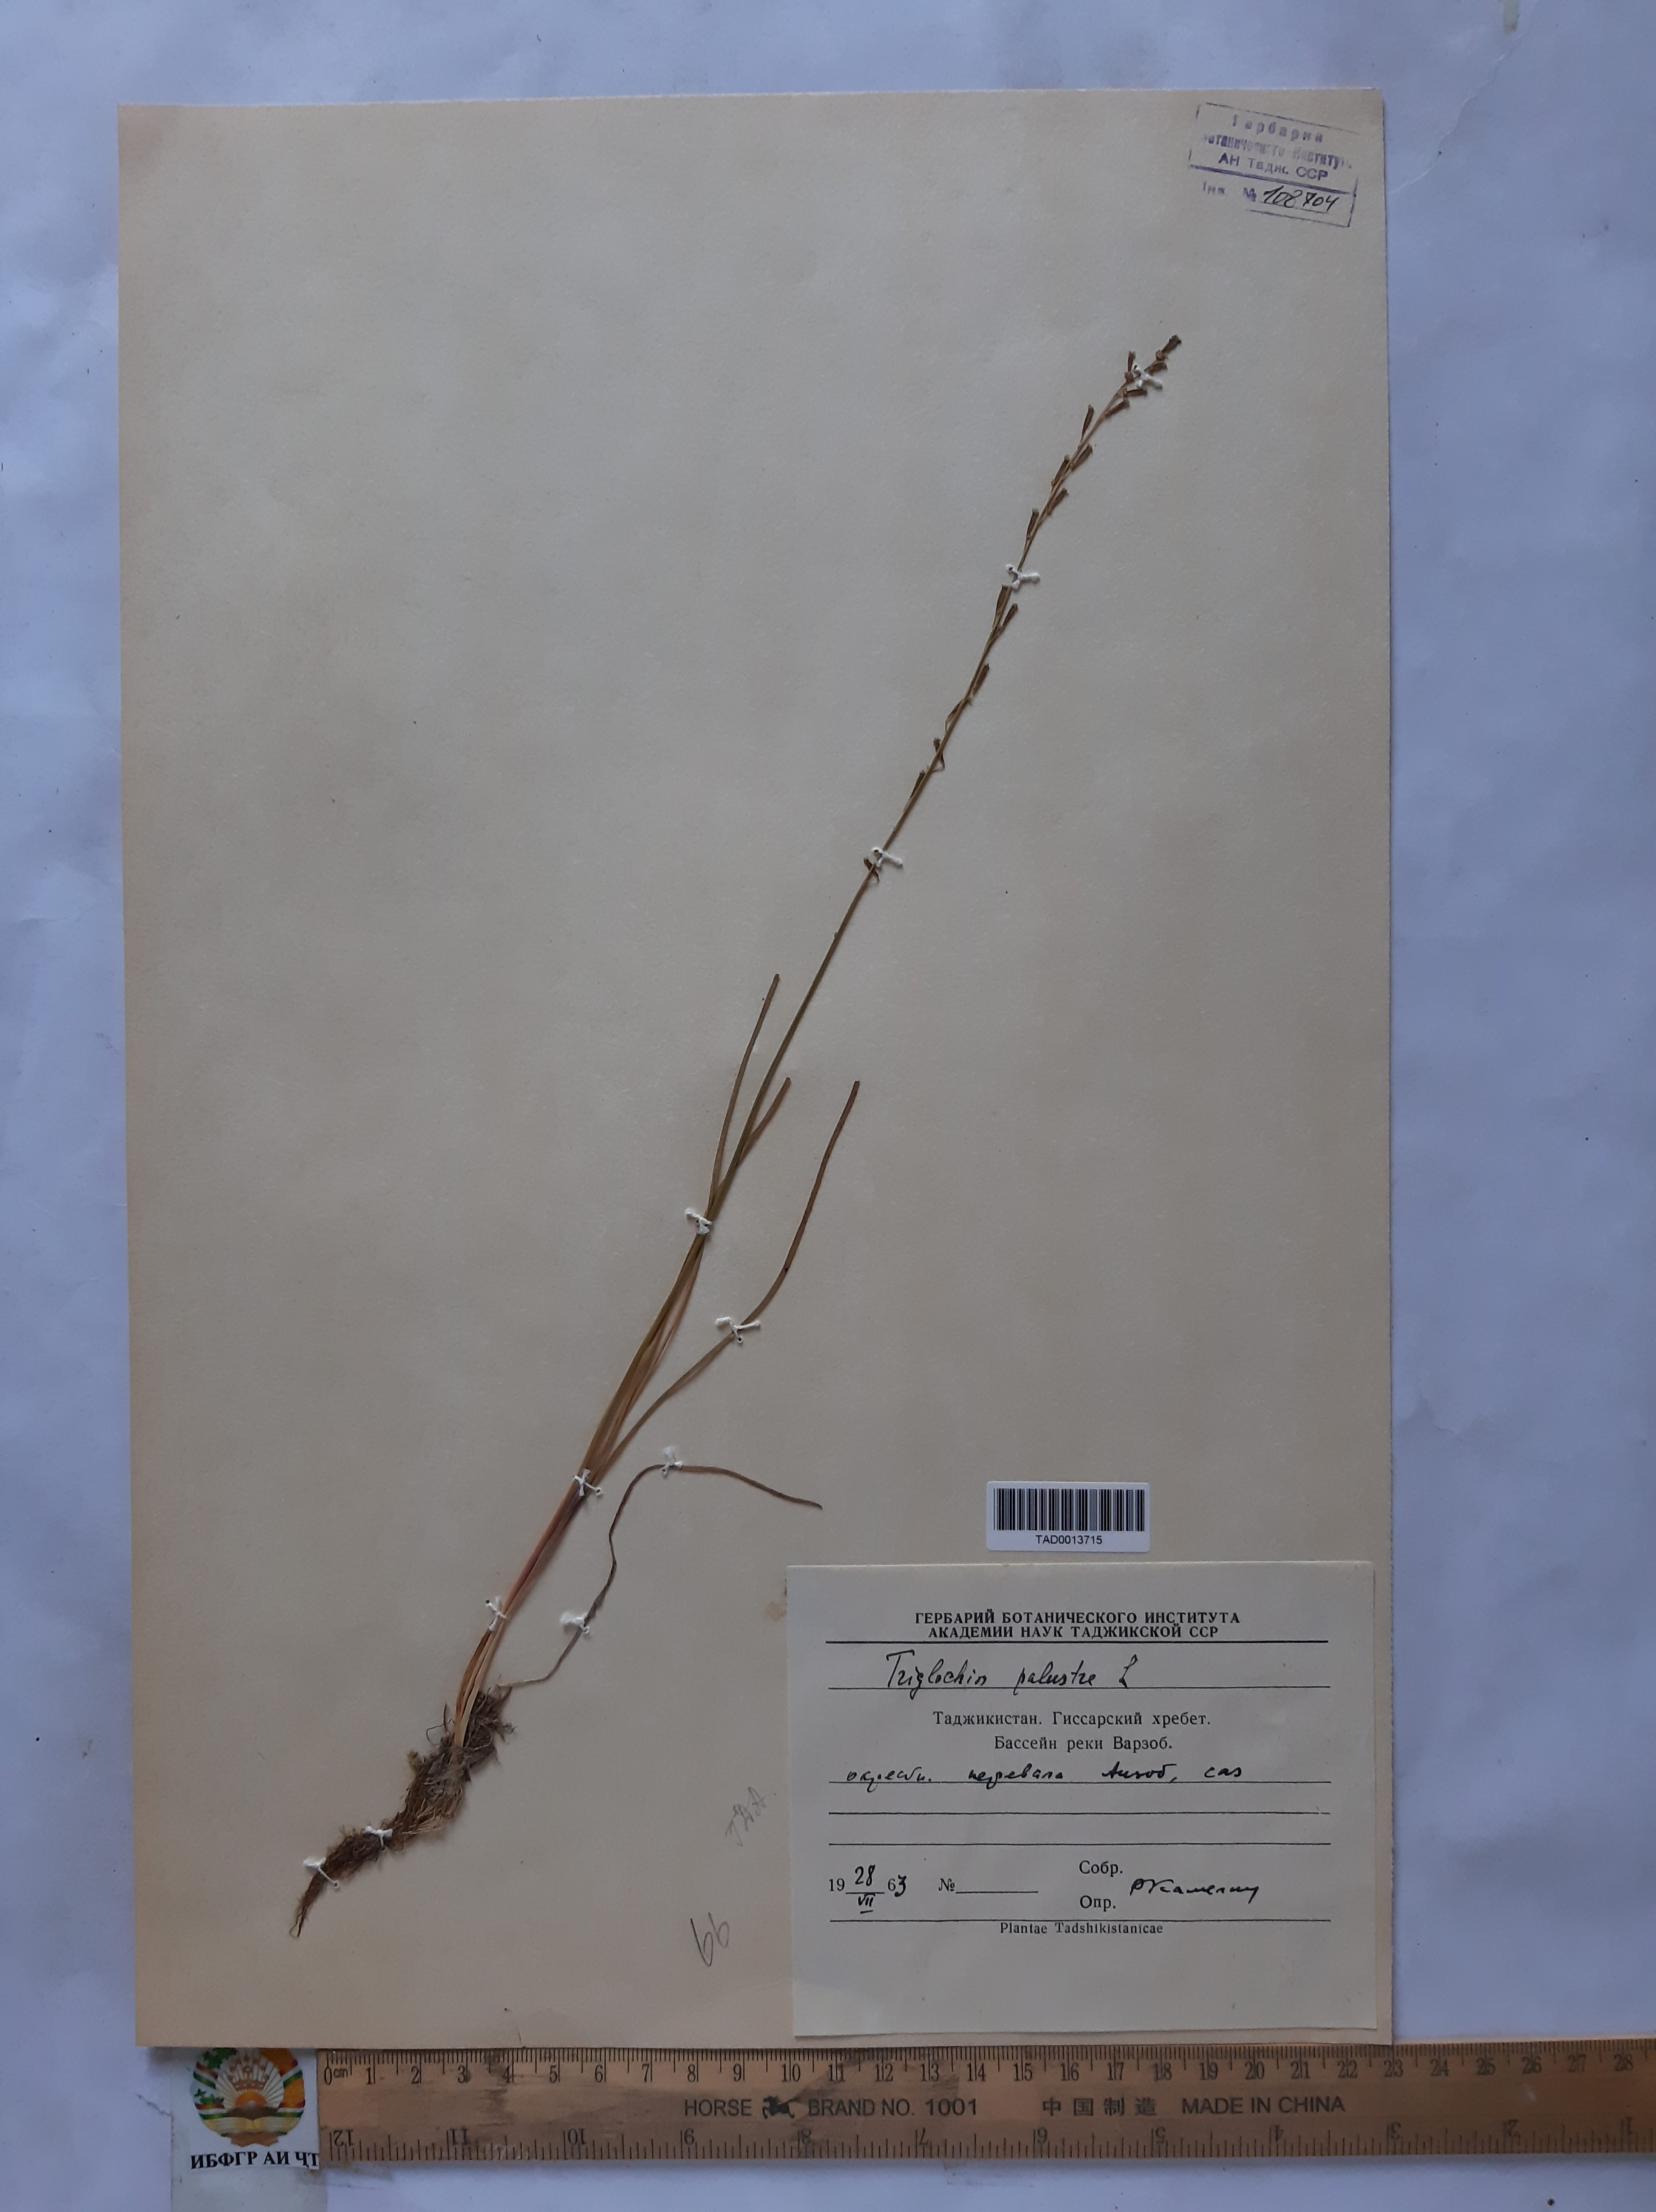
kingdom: Plantae
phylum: Tracheophyta
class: Liliopsida
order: Alismatales
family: Juncaginaceae
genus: Triglochin
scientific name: Triglochin palustris
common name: Marsh arrowgrass
